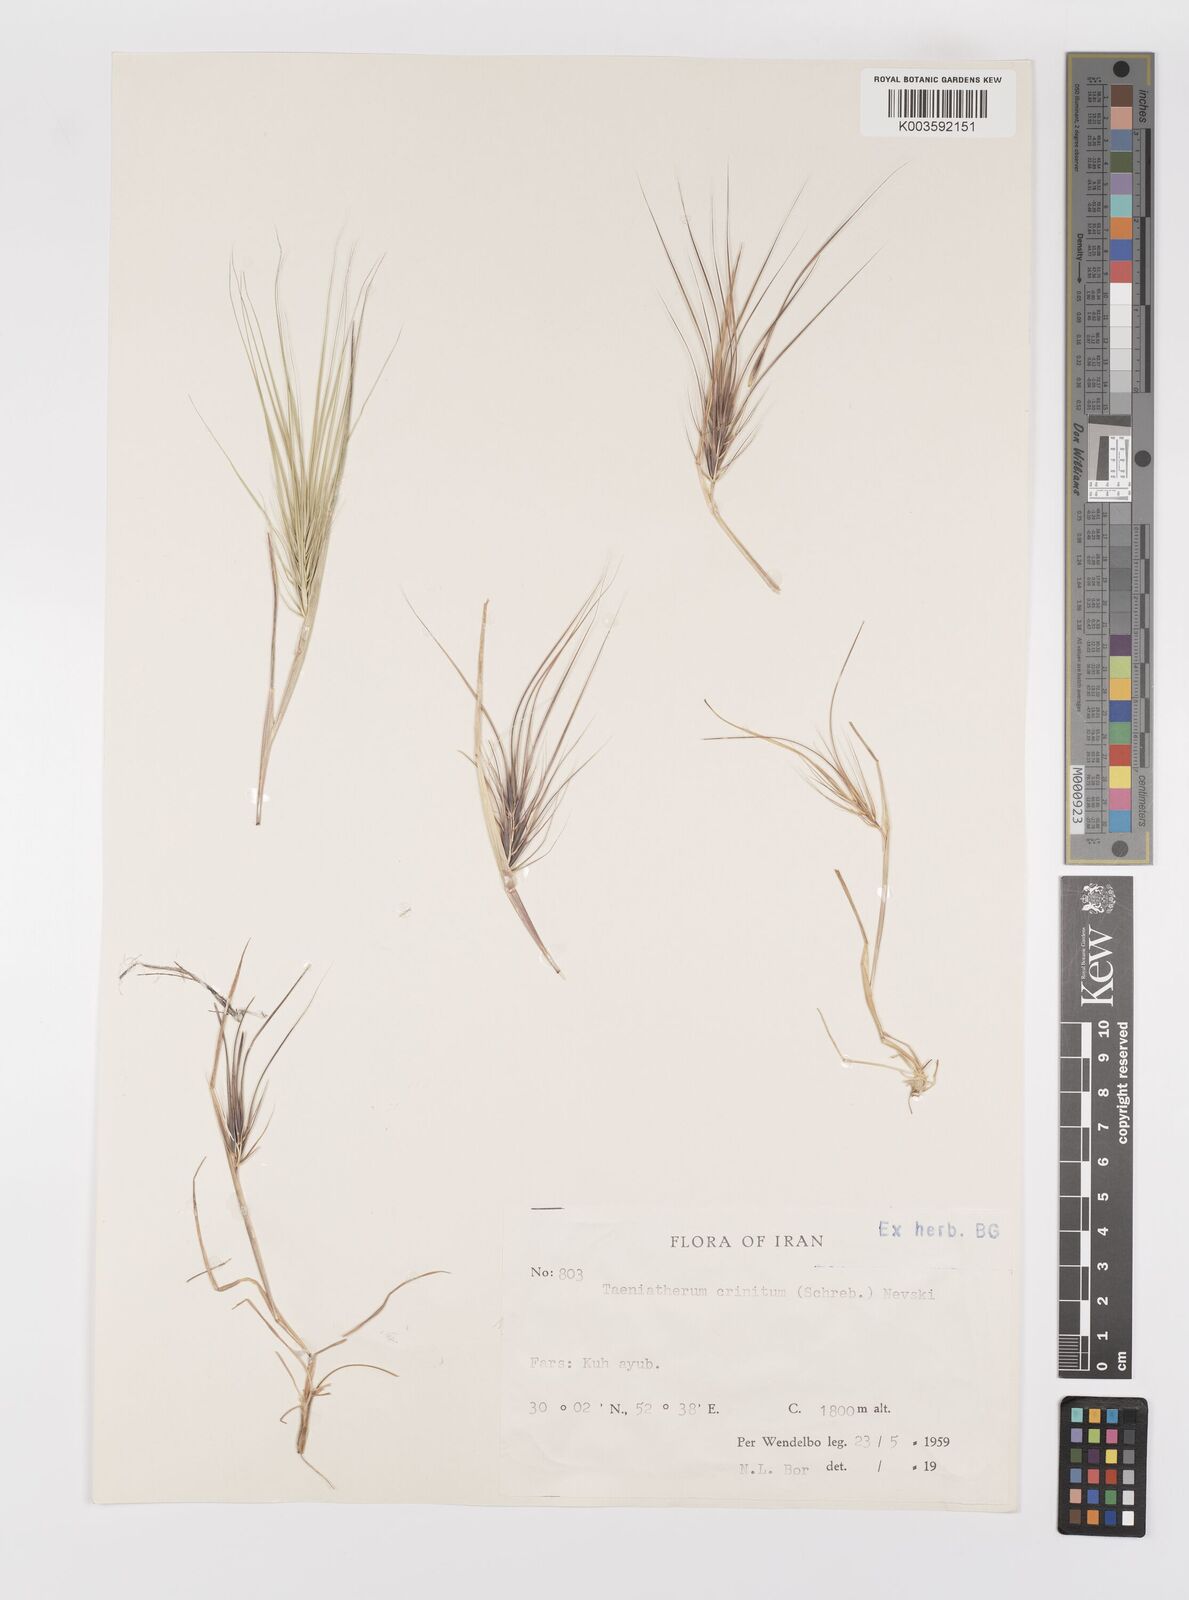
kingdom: Plantae
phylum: Tracheophyta
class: Liliopsida
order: Poales
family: Poaceae
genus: Taeniatherum
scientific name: Taeniatherum caput-medusae
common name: Medusahead
